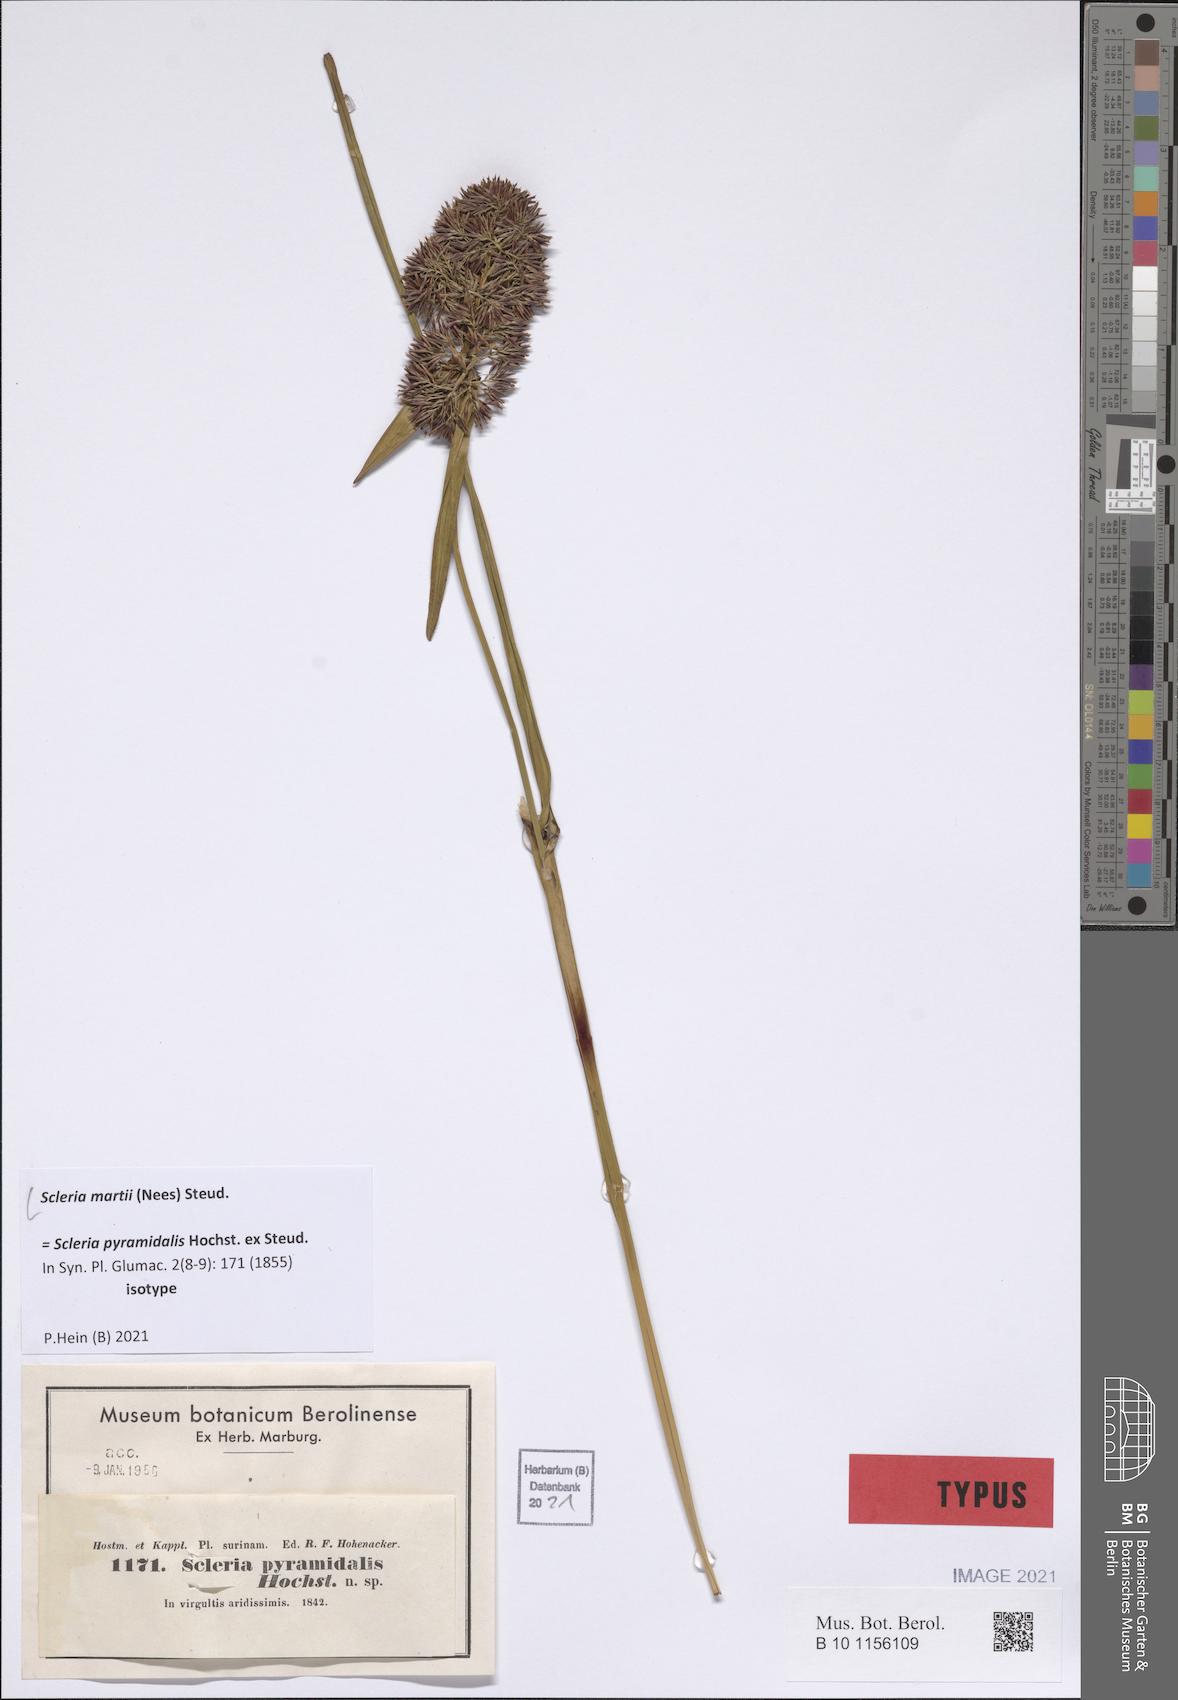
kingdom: Plantae
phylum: Tracheophyta
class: Liliopsida
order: Poales
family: Cyperaceae
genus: Scleria
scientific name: Scleria martii
